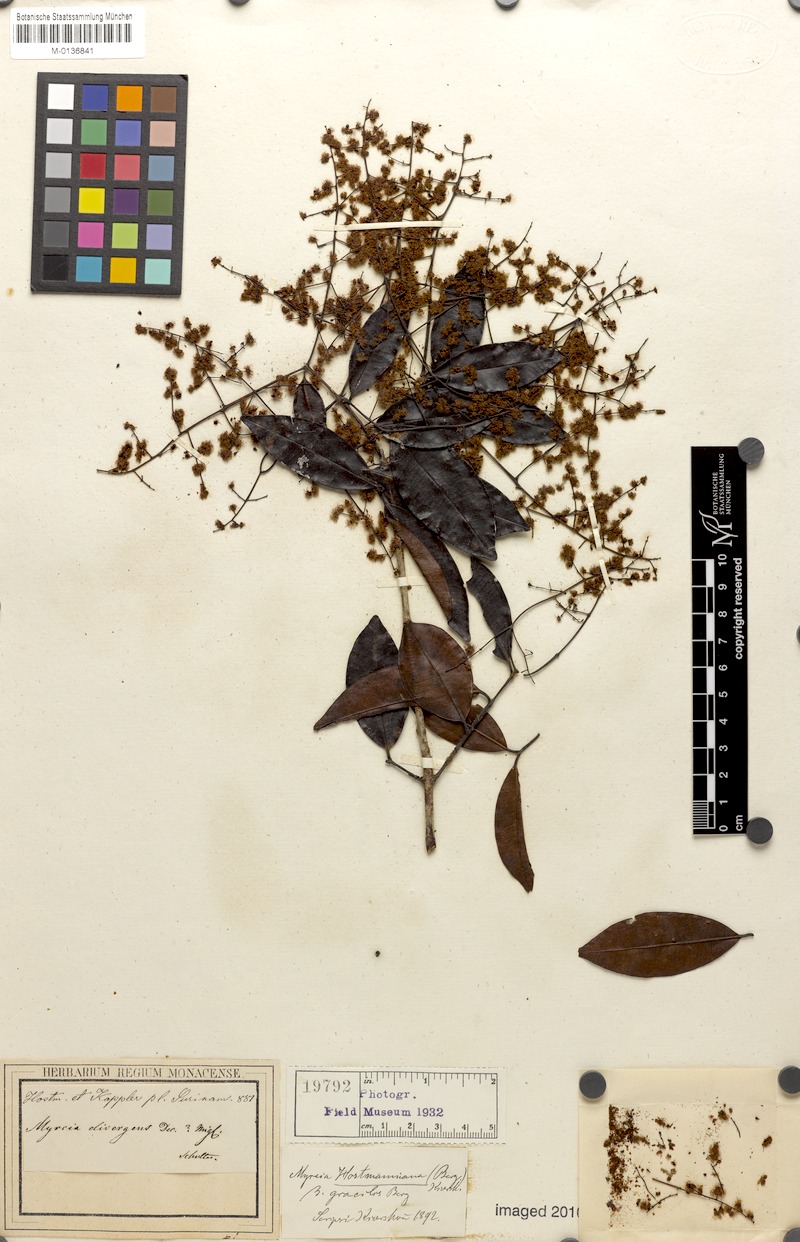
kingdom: Plantae
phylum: Tracheophyta
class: Magnoliopsida
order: Myrtales
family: Myrtaceae
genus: Myrcia
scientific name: Myrcia amazonica
